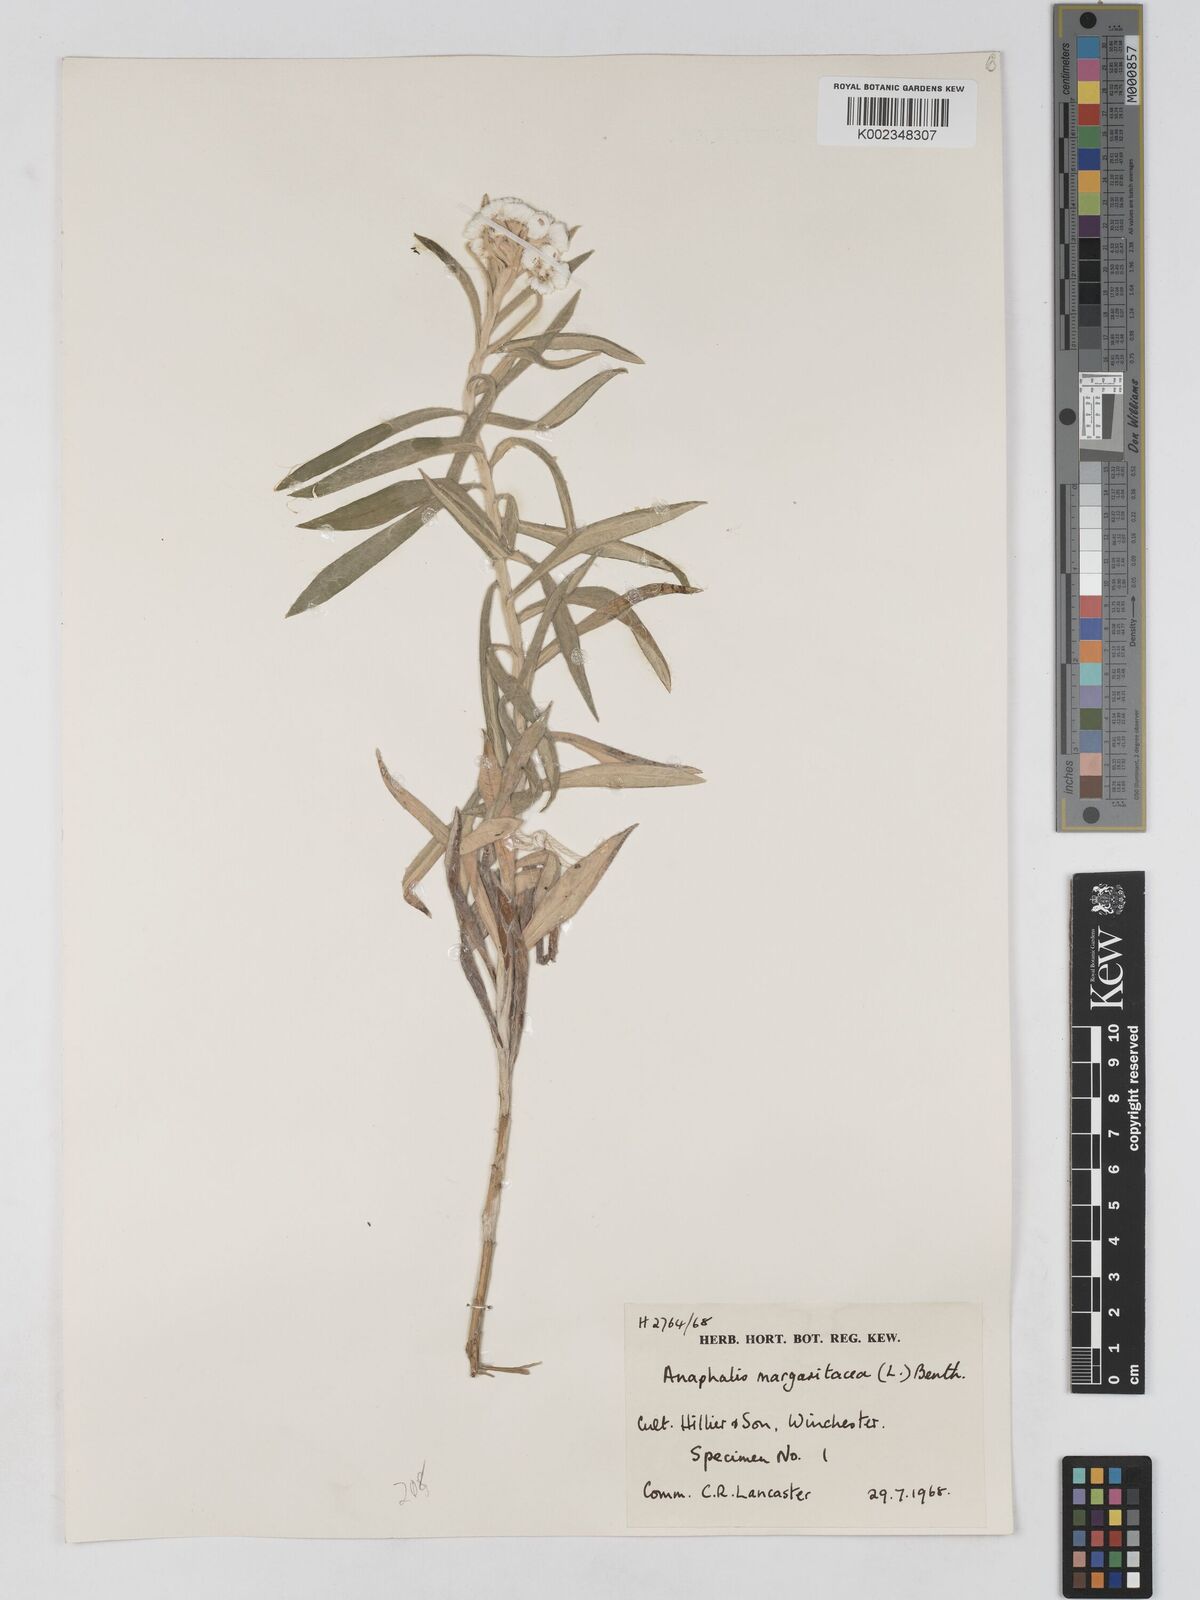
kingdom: Plantae
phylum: Tracheophyta
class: Magnoliopsida
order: Asterales
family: Asteraceae
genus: Anaphalis
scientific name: Anaphalis margaritacea
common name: Pearly everlasting
